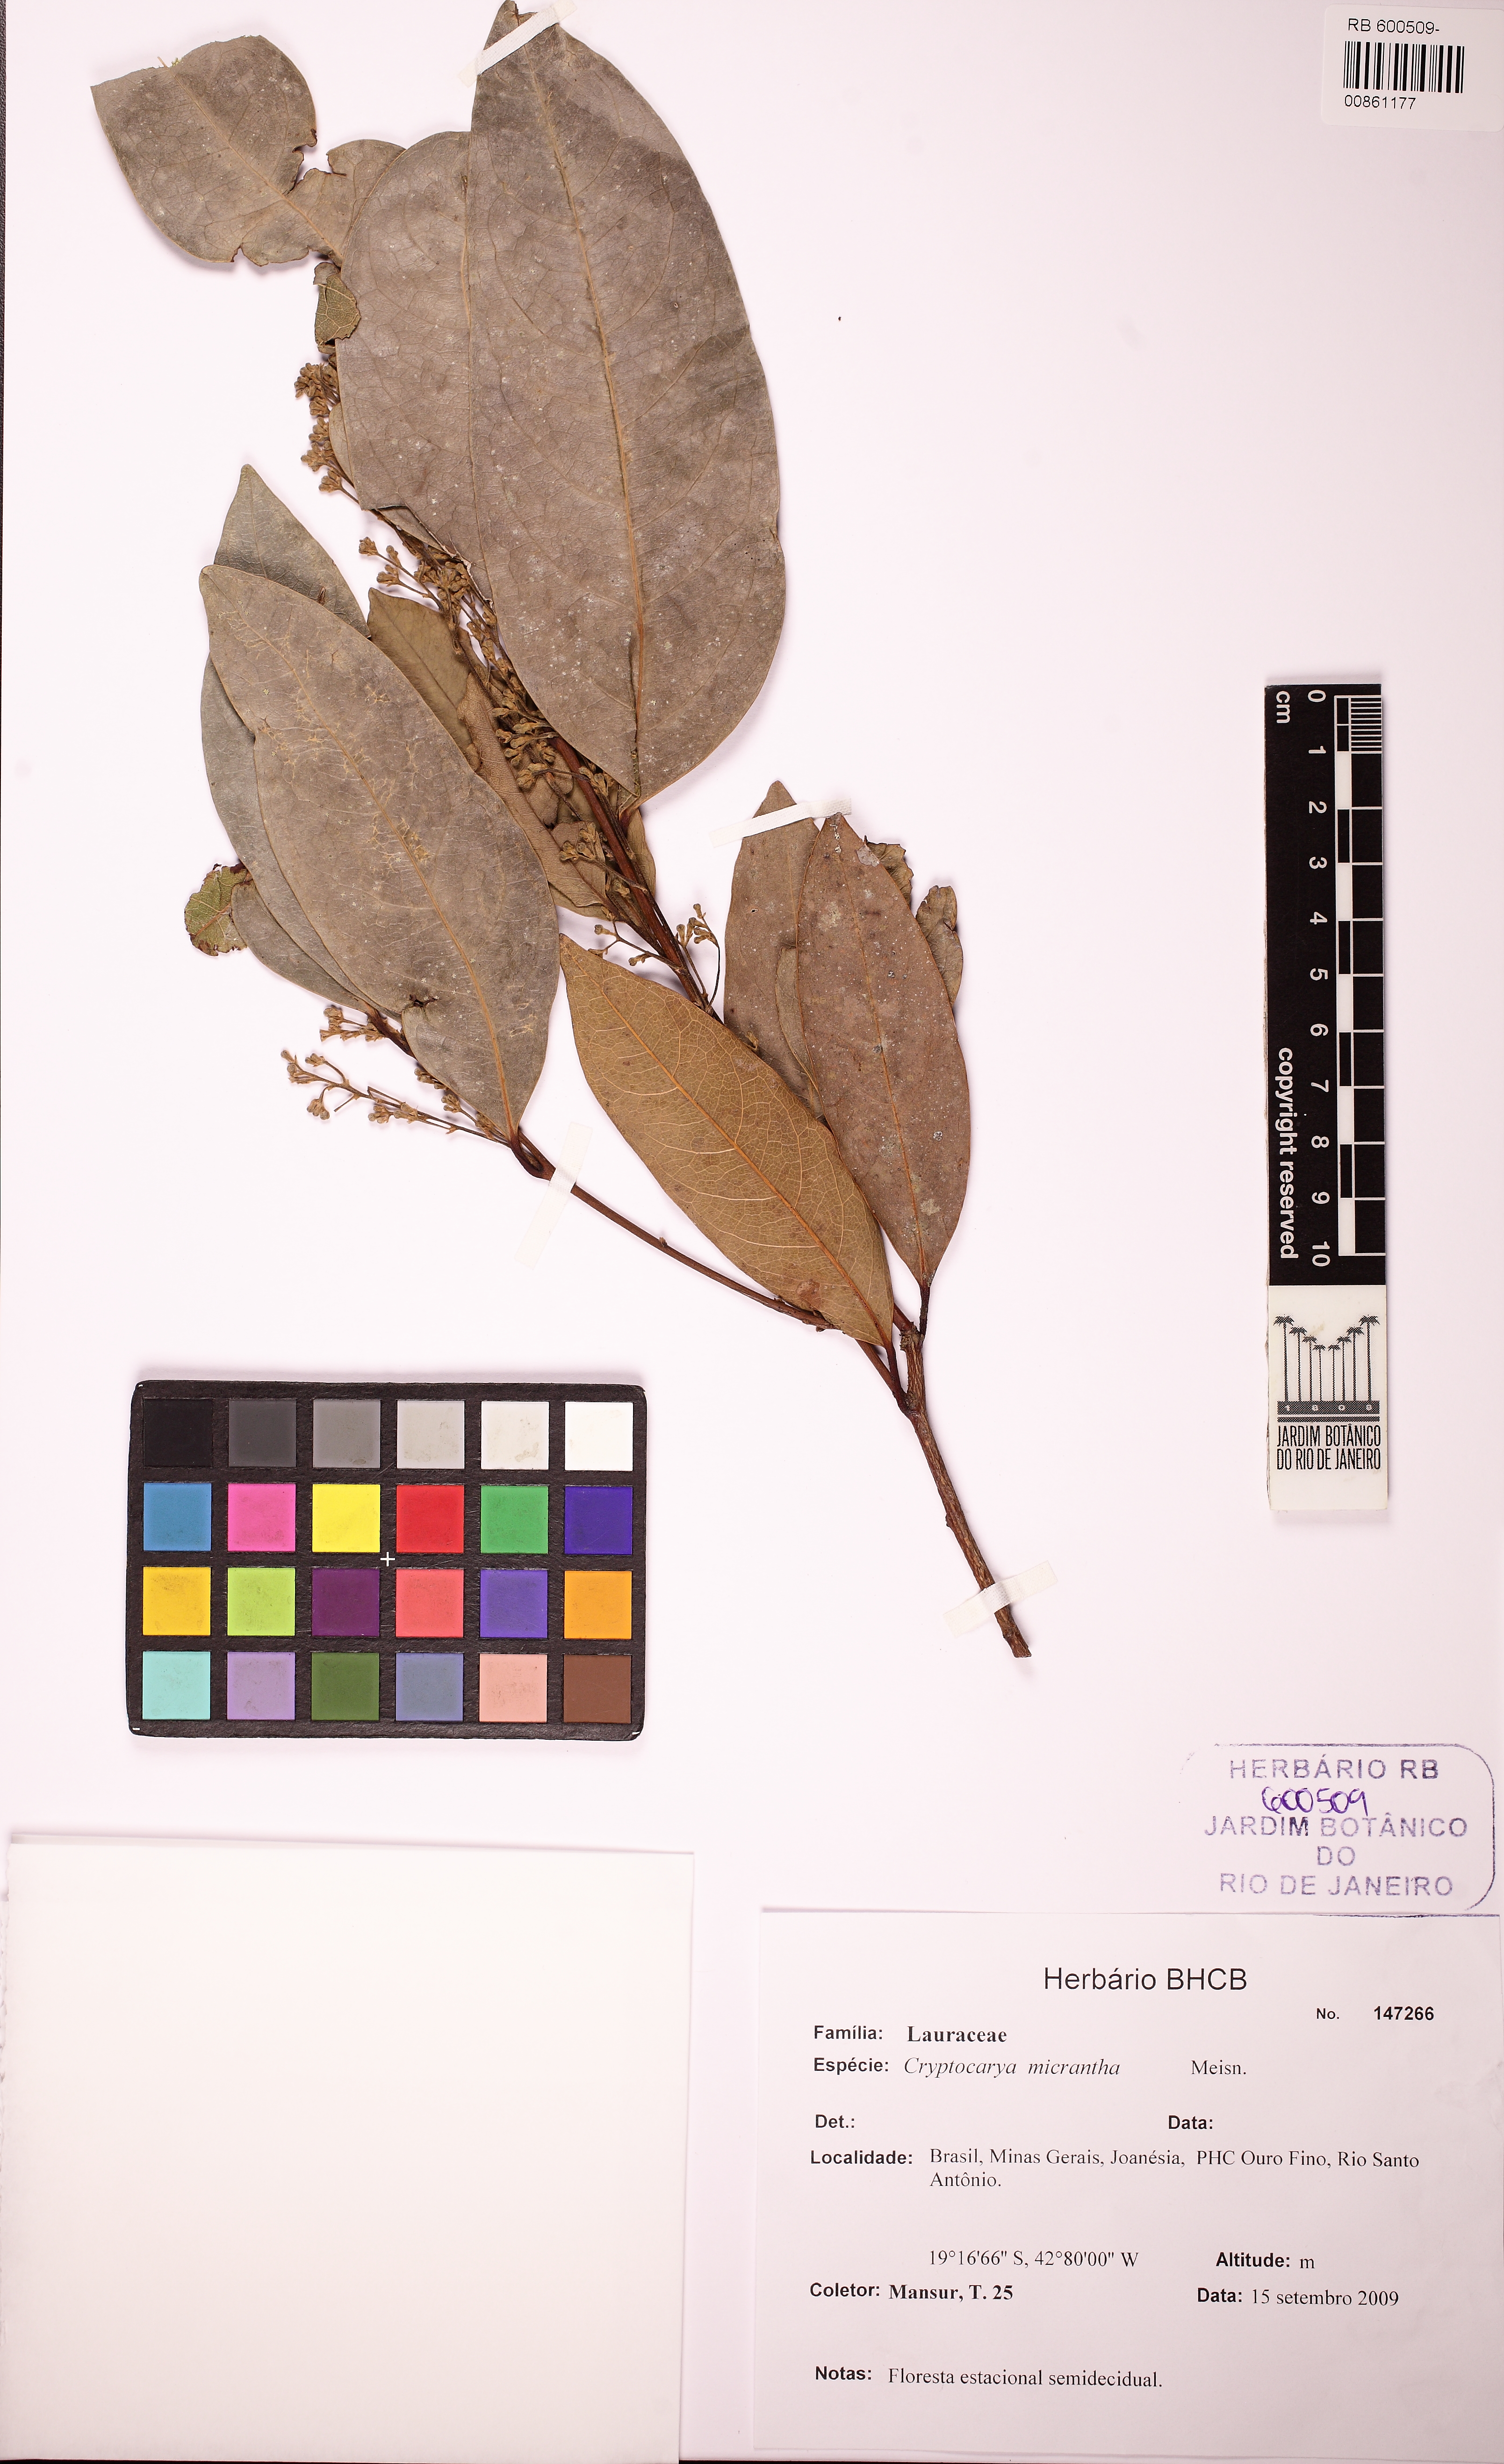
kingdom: Plantae
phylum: Tracheophyta
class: Magnoliopsida
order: Laurales
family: Lauraceae
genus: Cryptocarya
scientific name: Cryptocarya micrantha
